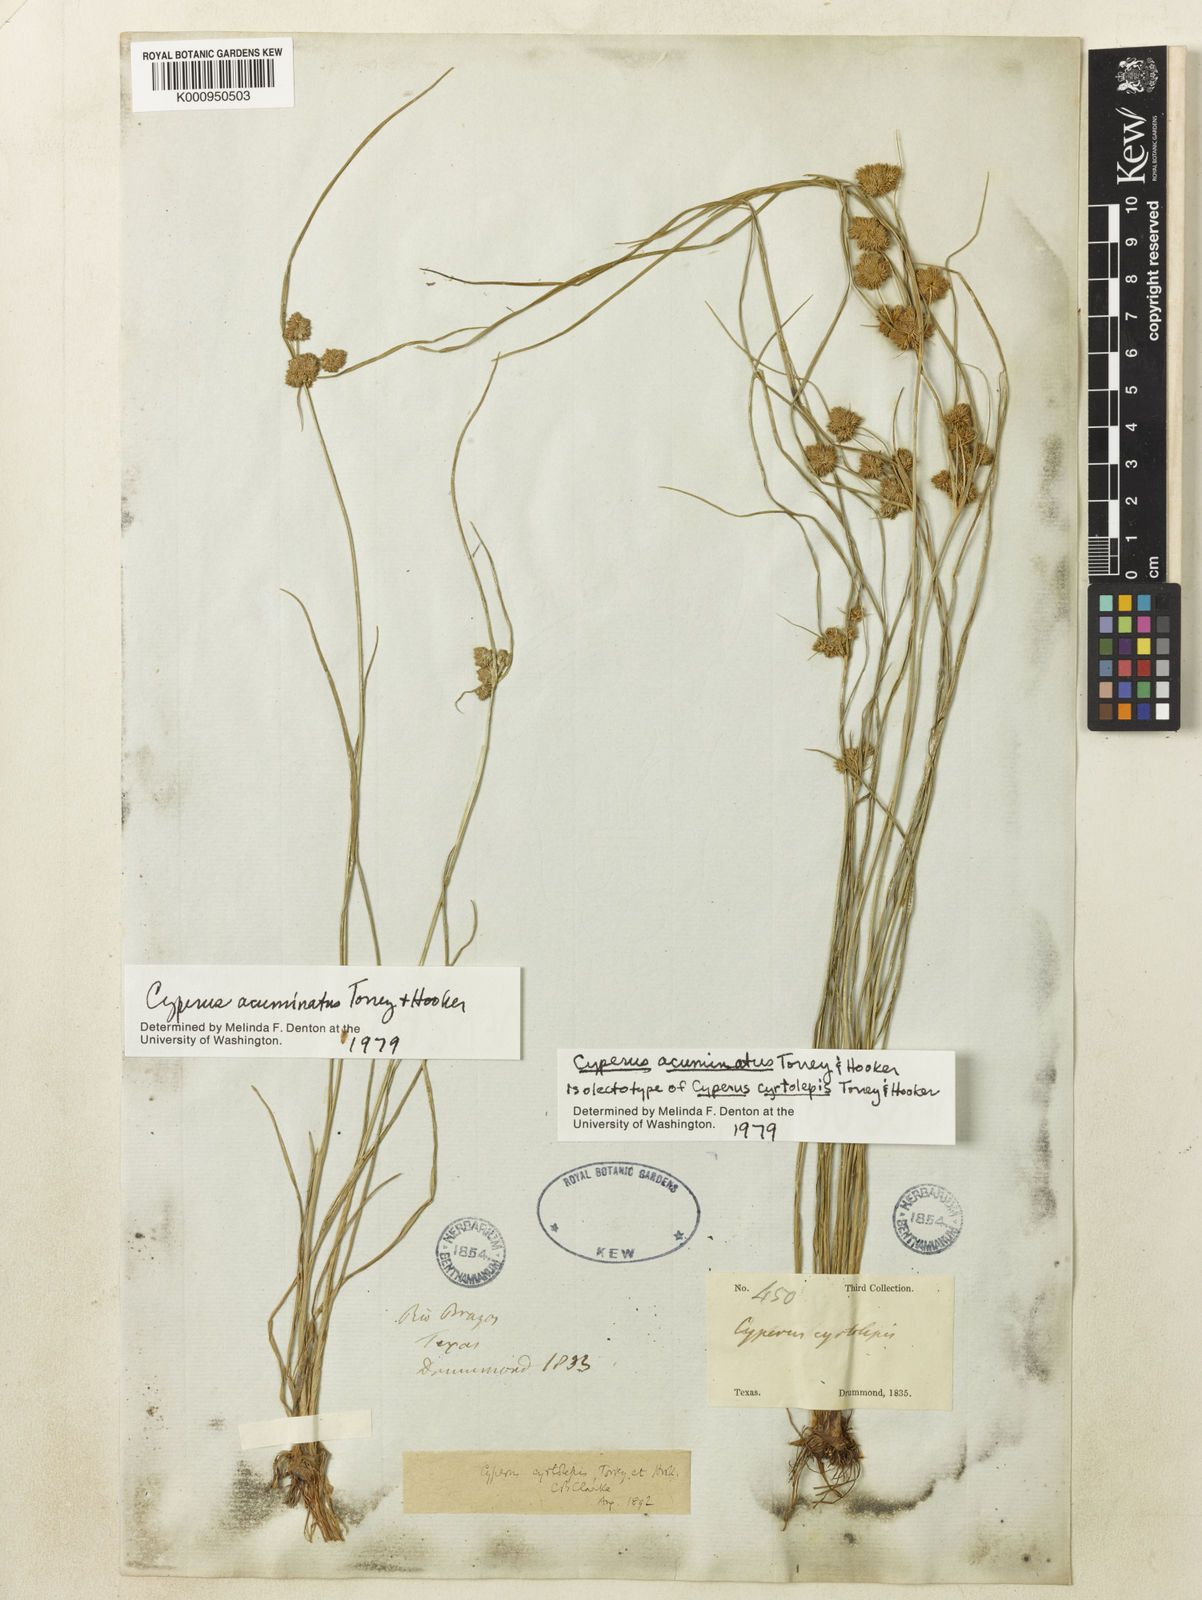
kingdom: Plantae
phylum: Tracheophyta
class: Liliopsida
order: Poales
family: Cyperaceae
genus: Cyperus
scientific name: Cyperus acuminatus
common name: Short-pointed cyperus
